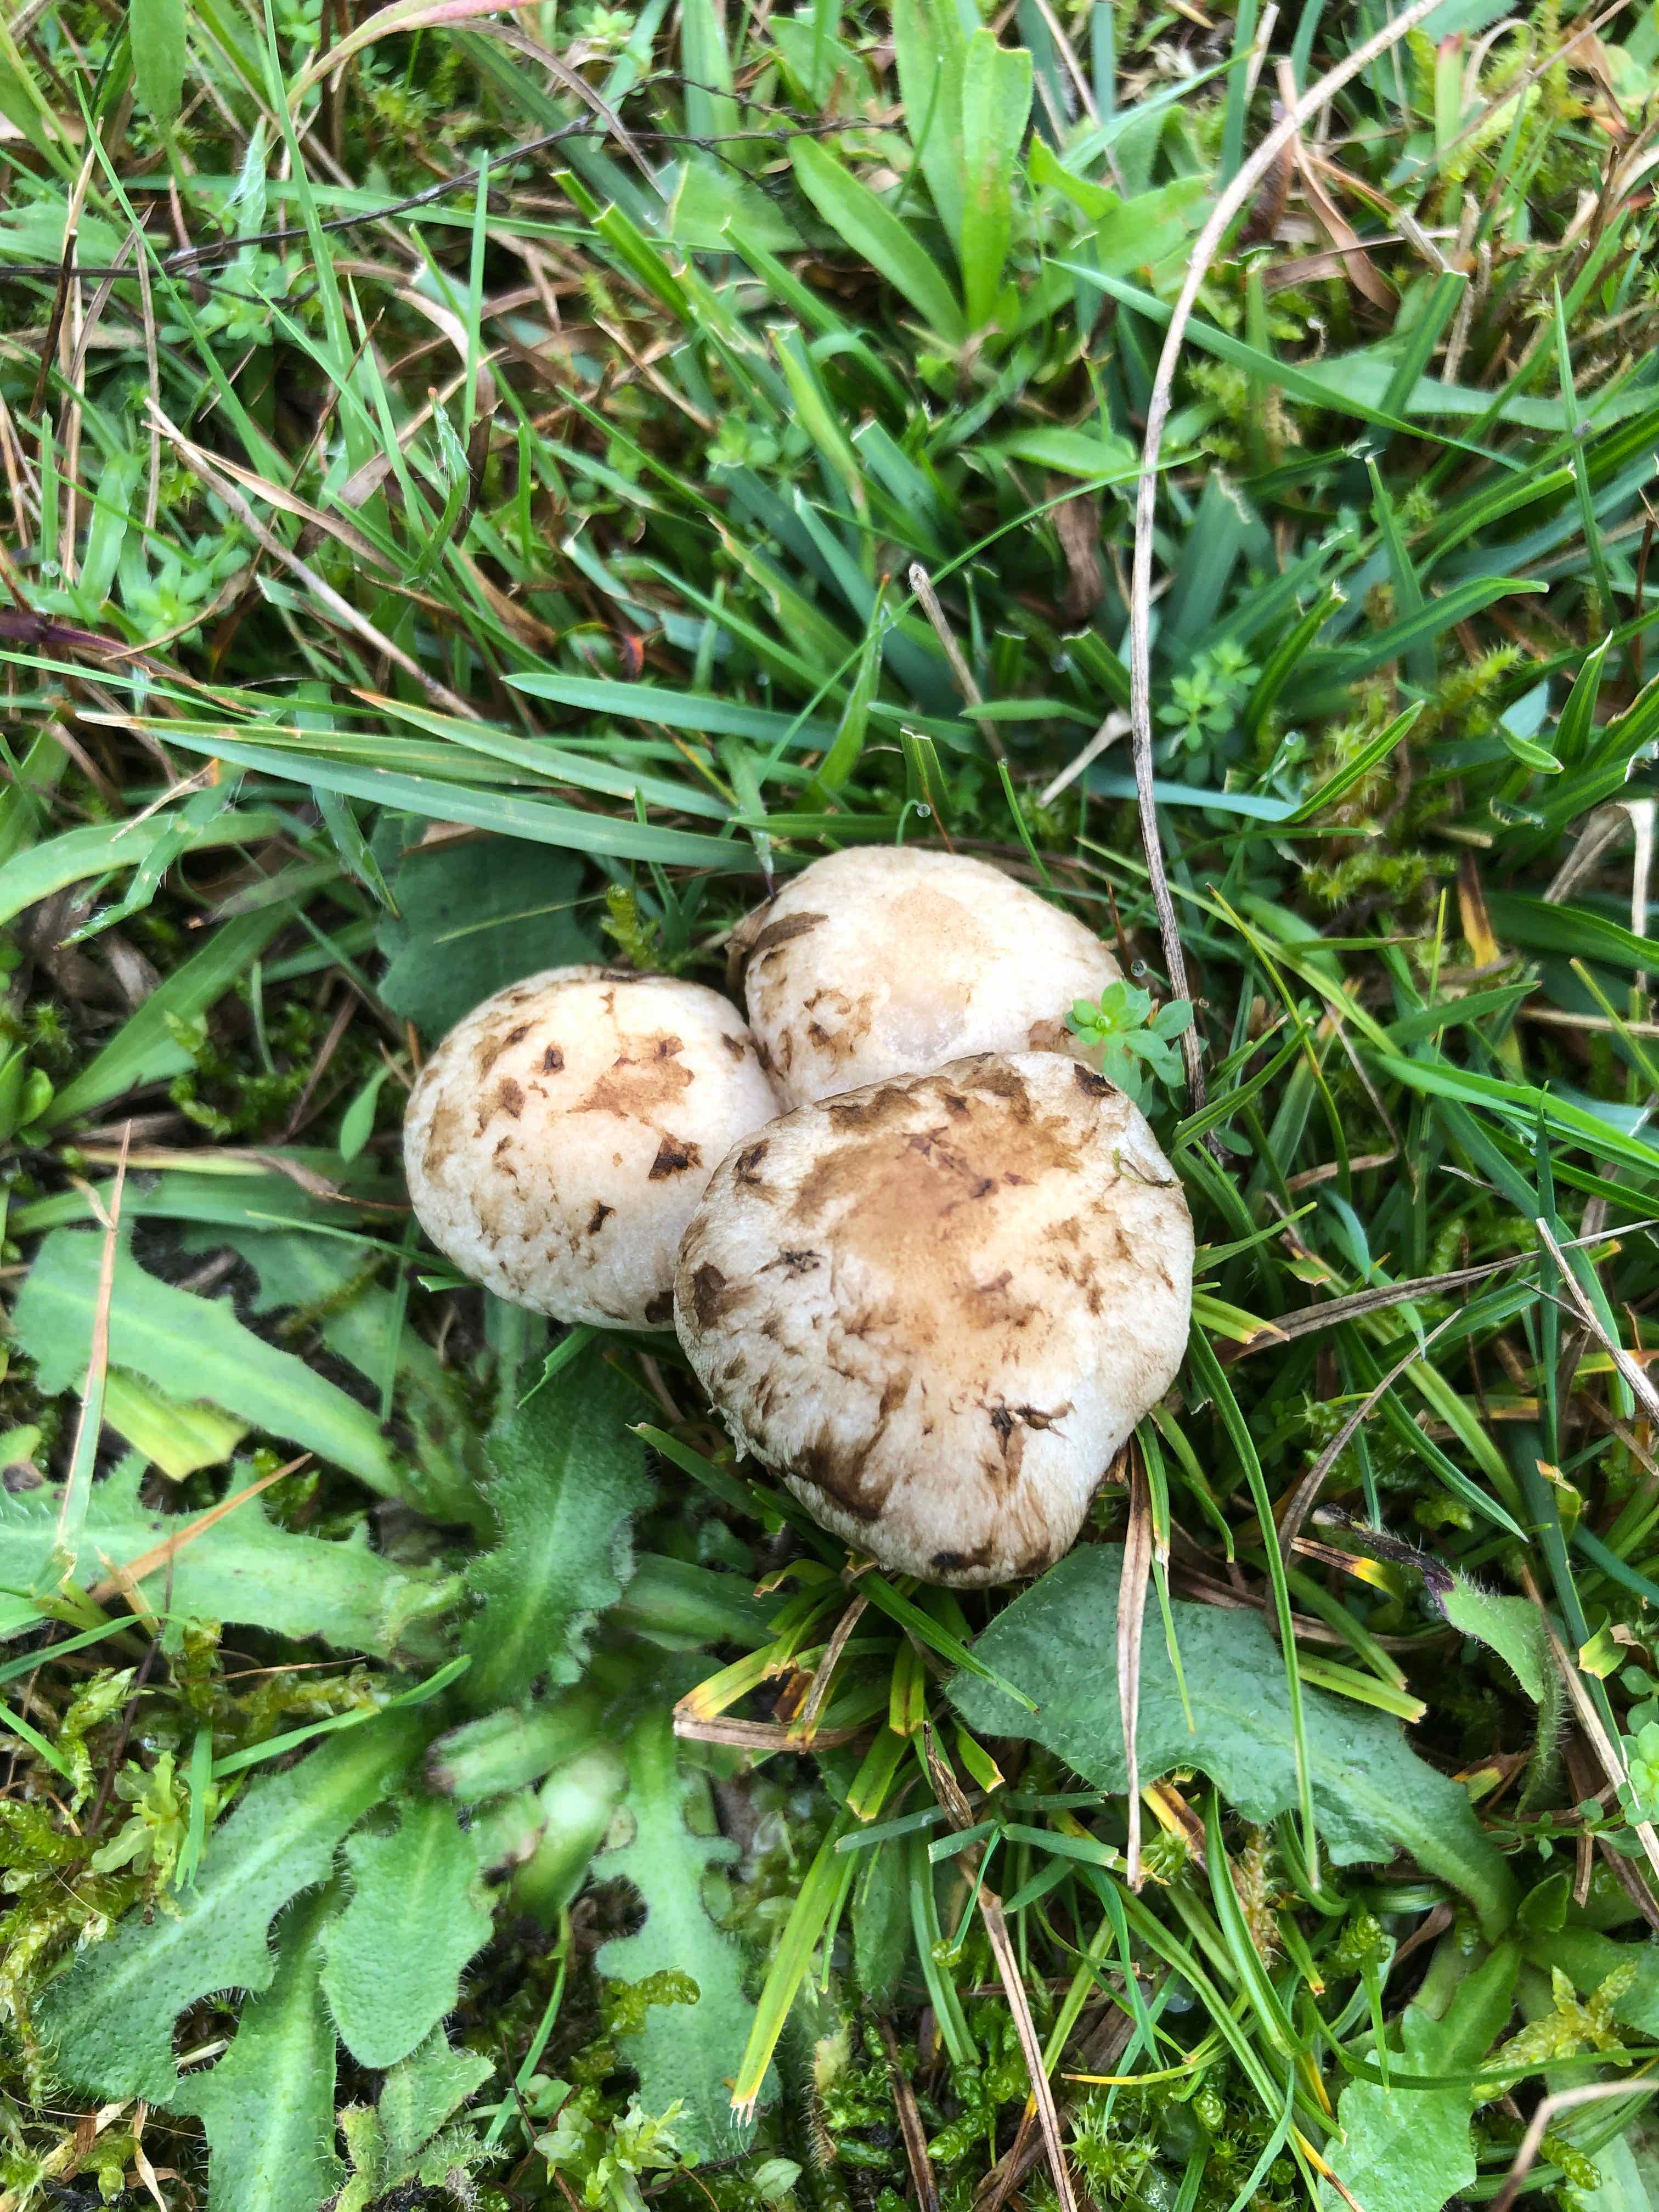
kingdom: Fungi
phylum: Basidiomycota
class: Agaricomycetes
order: Agaricales
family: Psathyrellaceae
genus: Psathyrella
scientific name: Psathyrella cotonea
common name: skællet mørkhat
